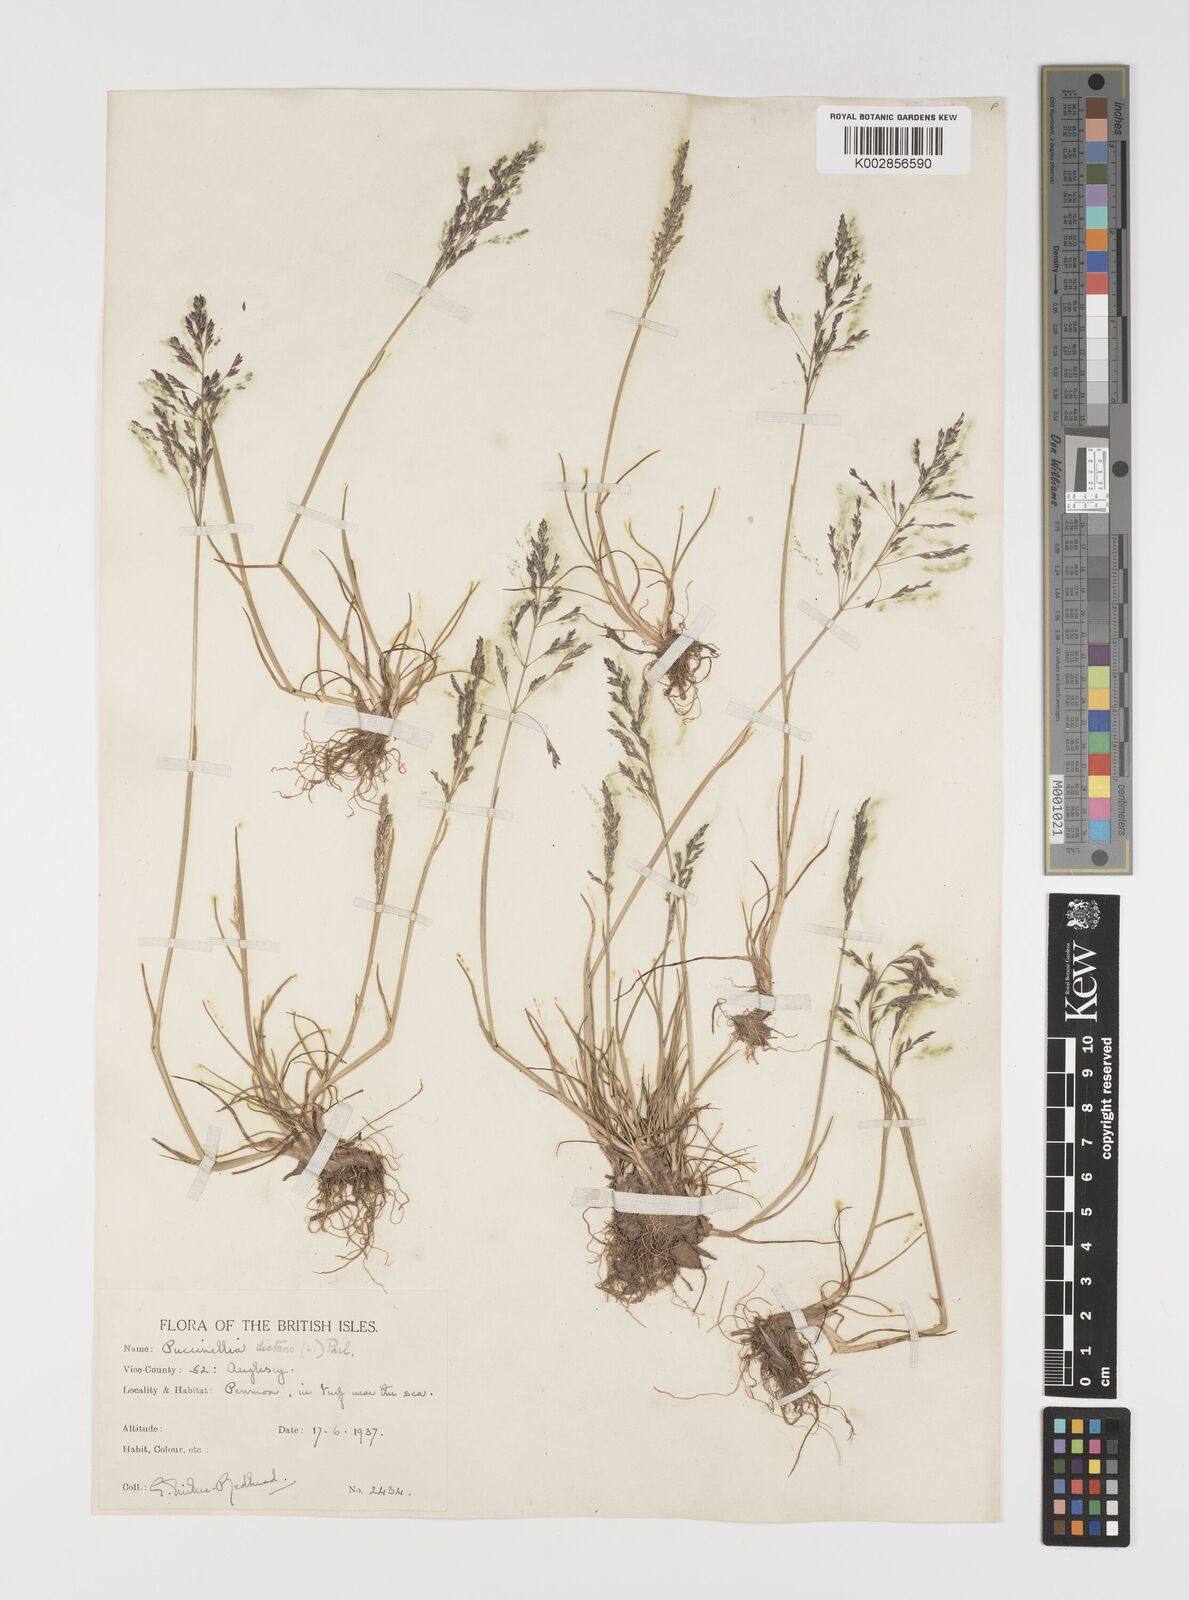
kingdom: Plantae
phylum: Tracheophyta
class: Liliopsida
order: Poales
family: Poaceae
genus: Puccinellia
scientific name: Puccinellia distans
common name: Weeping alkaligrass
